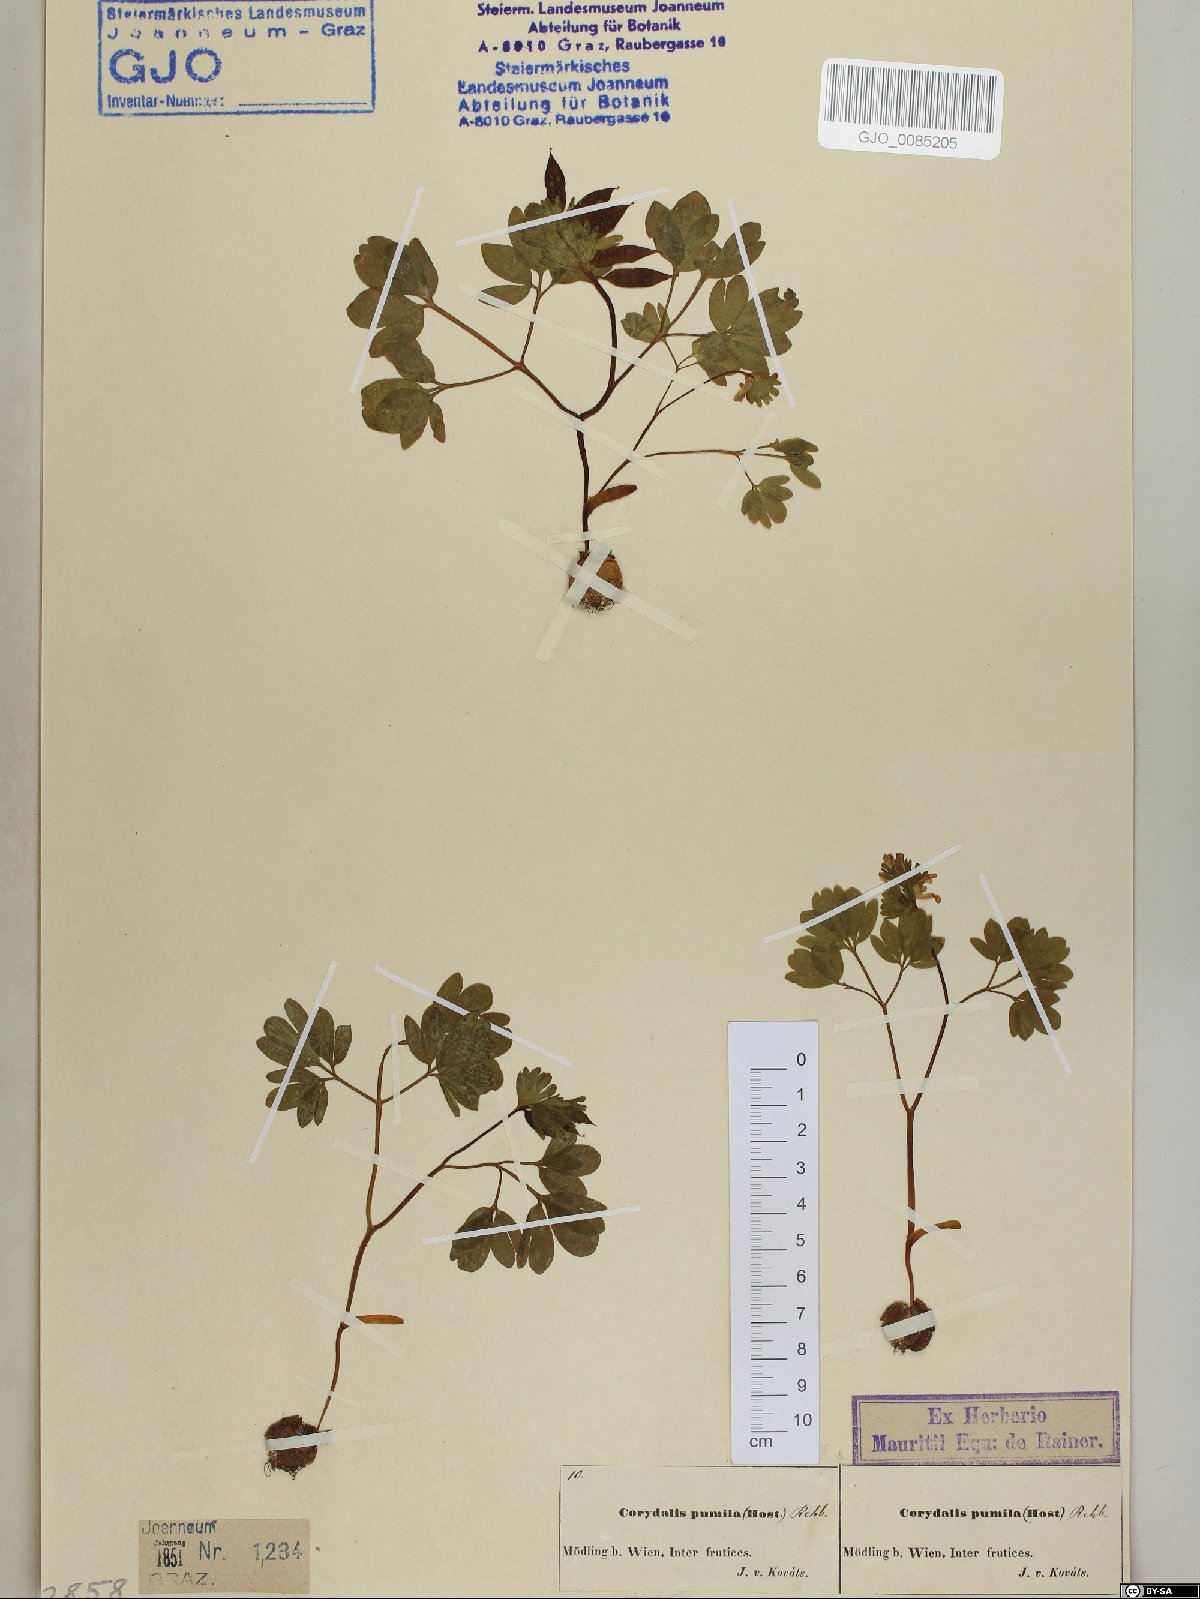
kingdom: Plantae
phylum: Tracheophyta
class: Magnoliopsida
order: Ranunculales
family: Papaveraceae
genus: Corydalis
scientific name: Corydalis pumila
